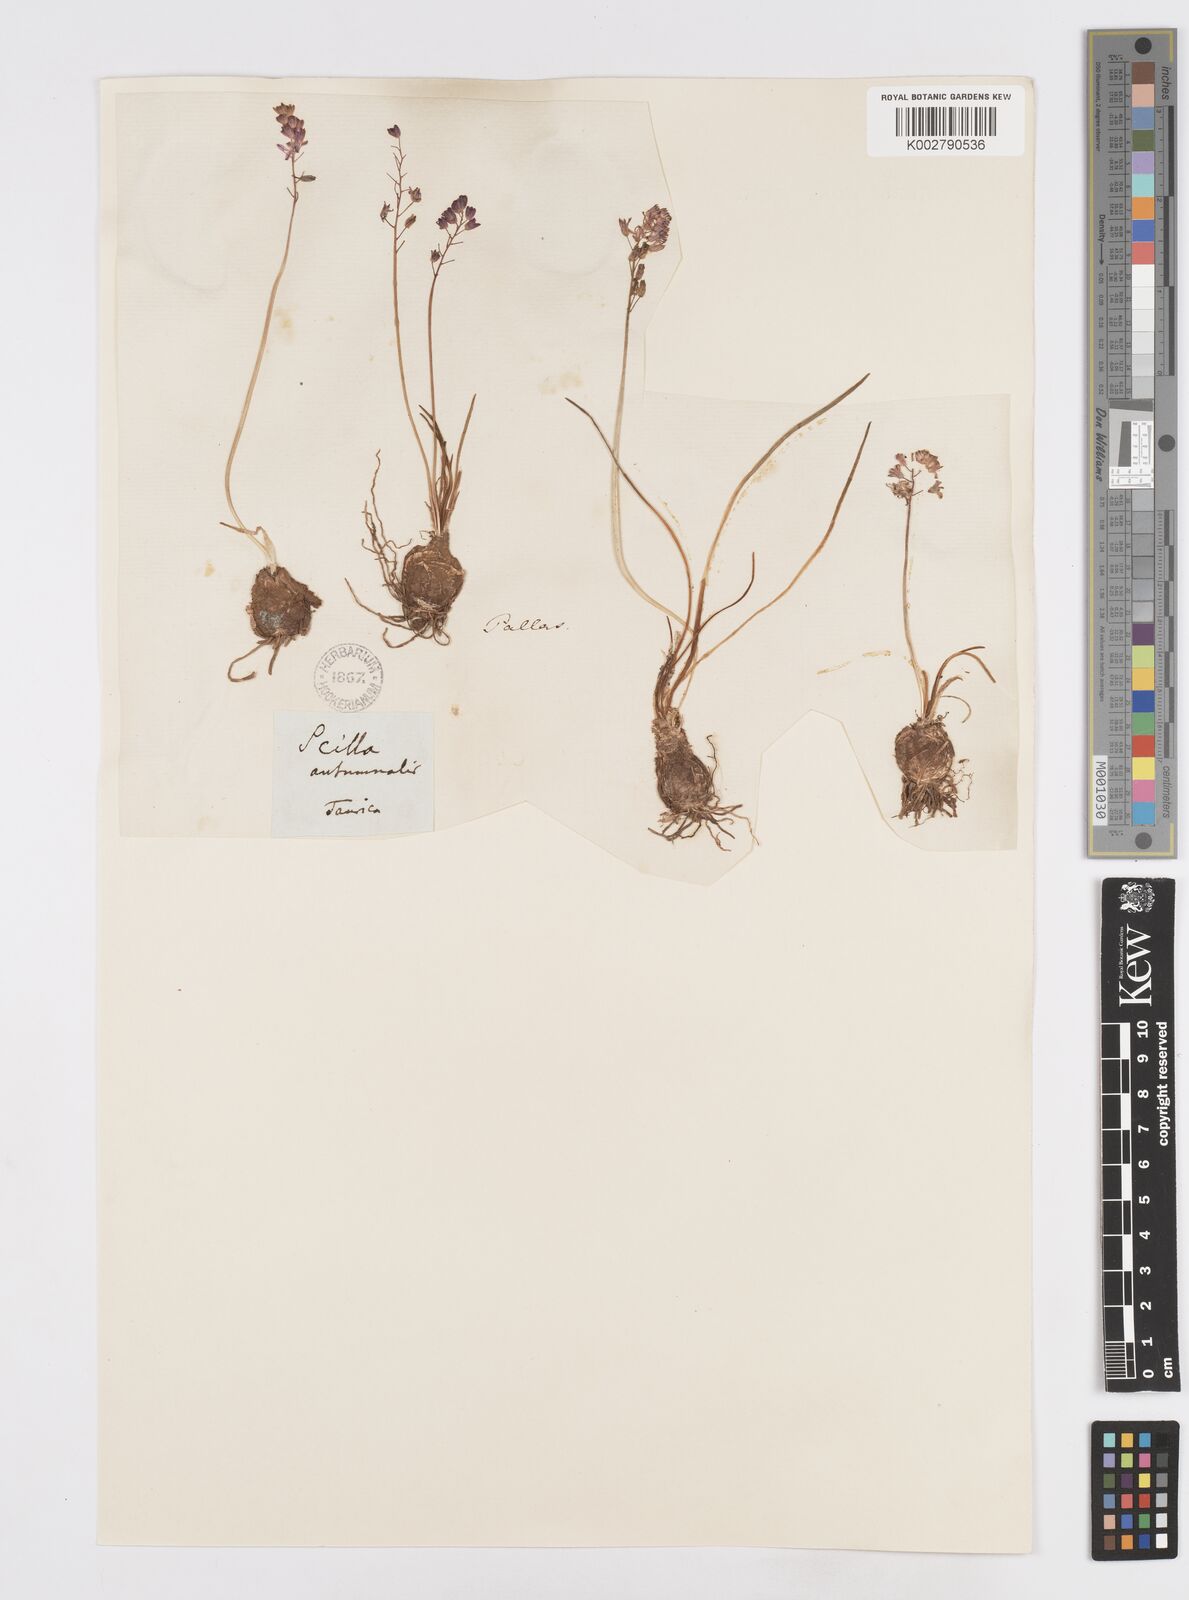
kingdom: Plantae
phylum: Tracheophyta
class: Liliopsida
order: Asparagales
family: Asparagaceae
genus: Prospero
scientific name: Prospero autumnale
